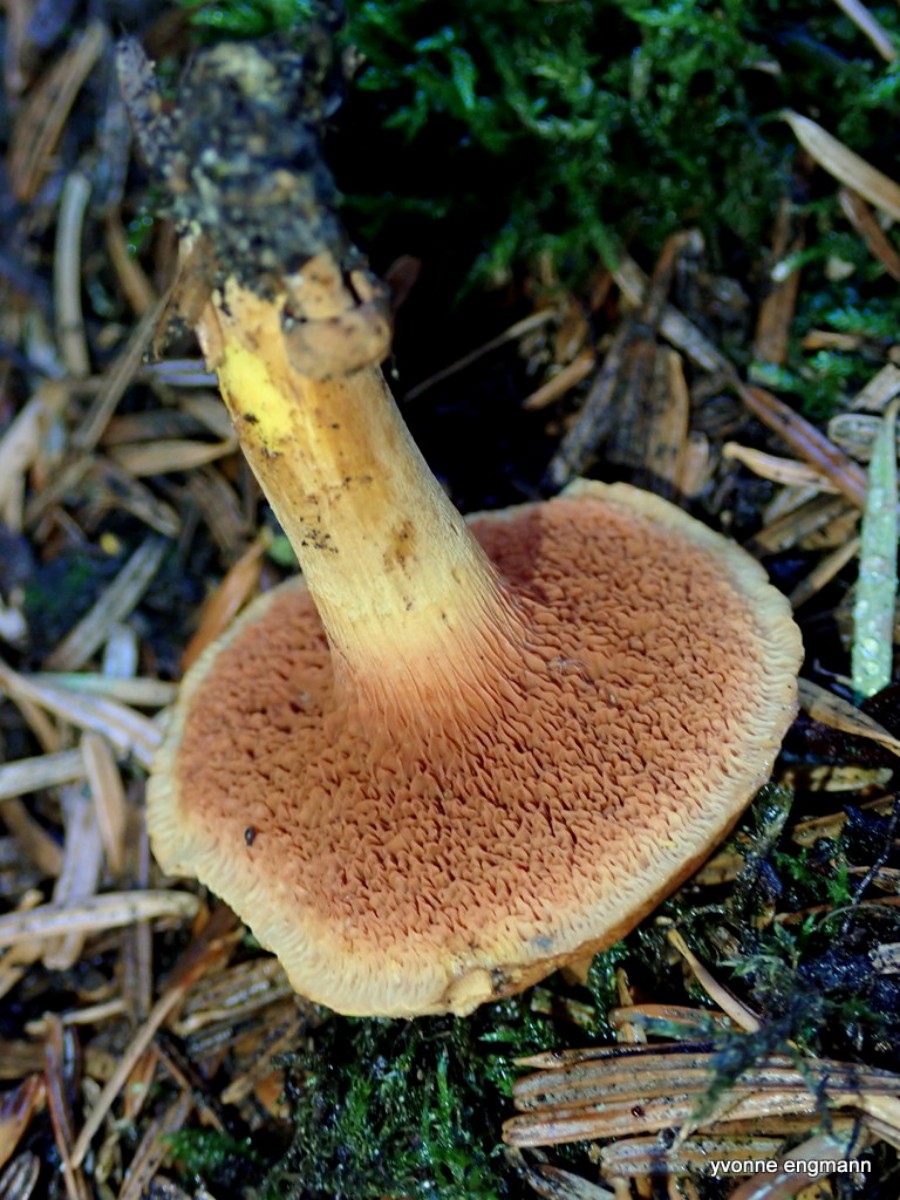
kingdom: Fungi
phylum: Basidiomycota
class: Agaricomycetes
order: Boletales
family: Boletaceae
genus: Chalciporus
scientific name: Chalciporus piperatus
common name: peberrørhat
